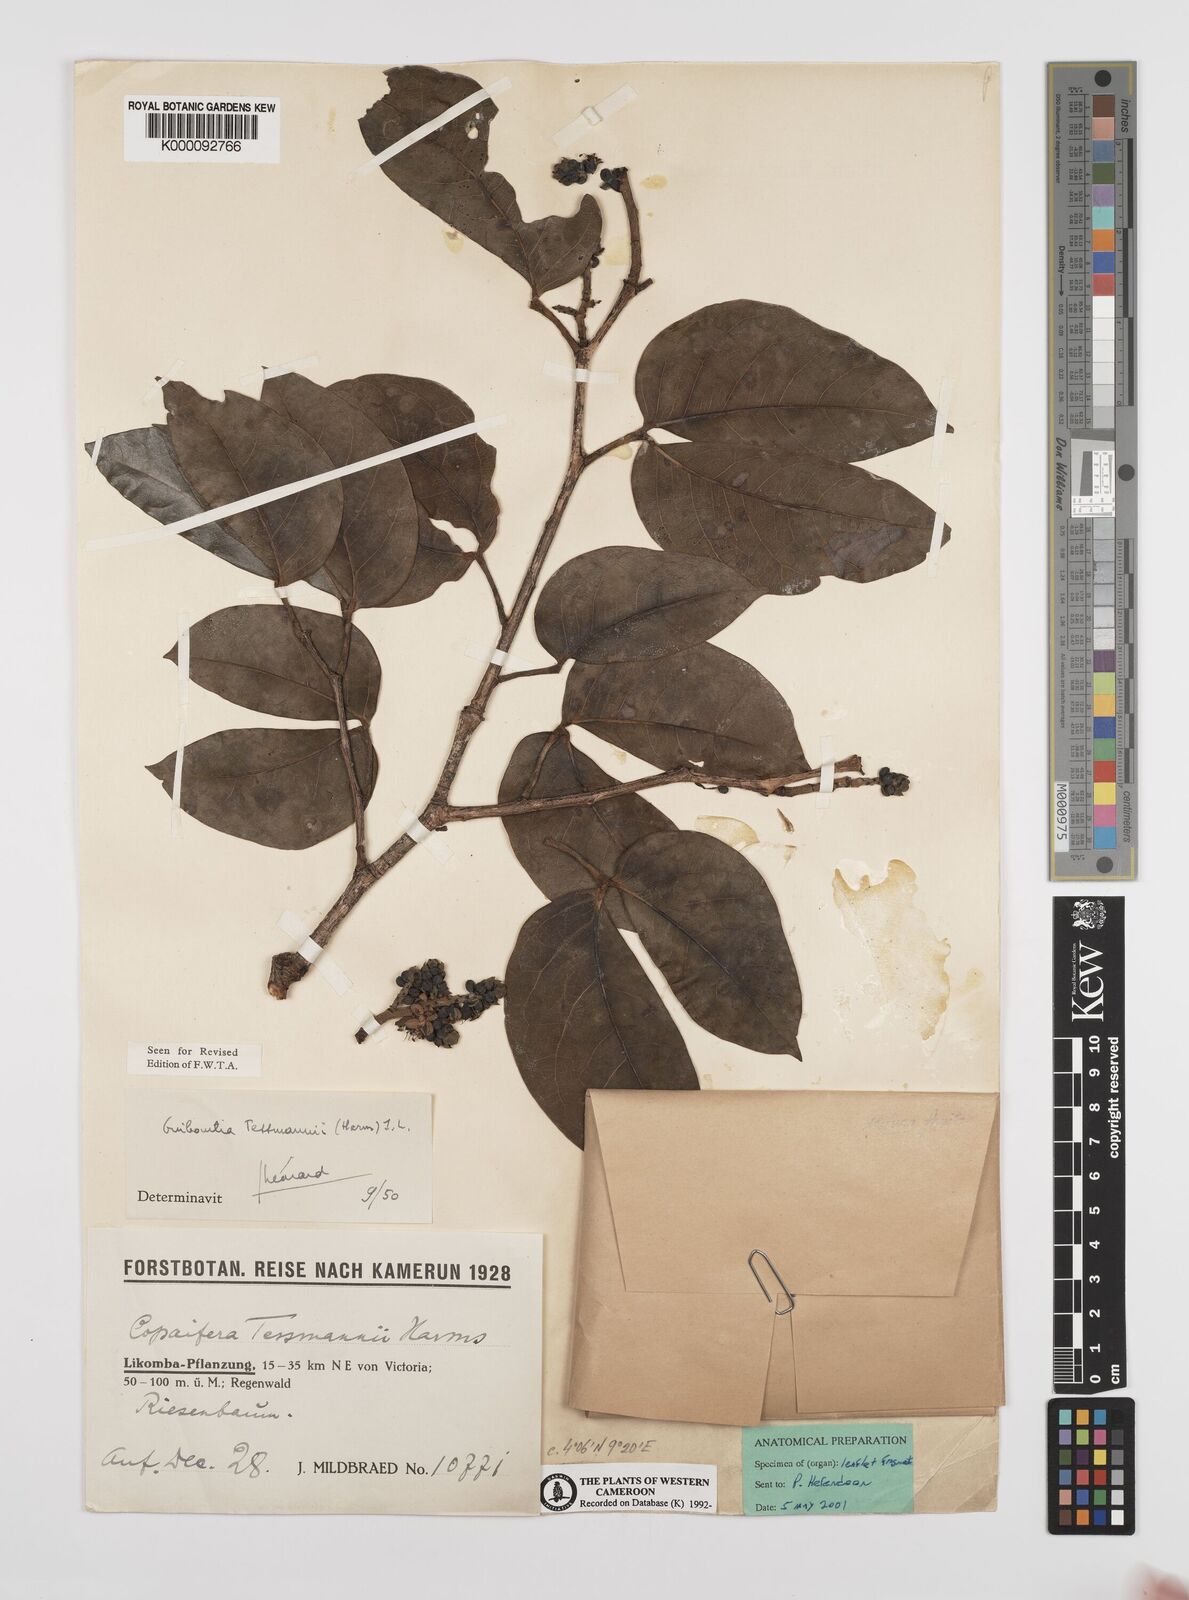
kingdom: Plantae
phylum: Tracheophyta
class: Magnoliopsida
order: Fabales
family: Fabaceae
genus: Guibourtia
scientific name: Guibourtia
